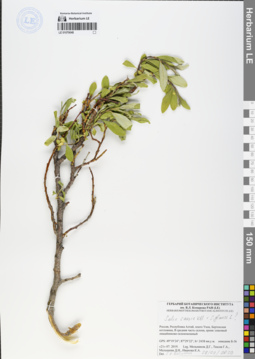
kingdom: Plantae
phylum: Tracheophyta
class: Magnoliopsida
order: Malpighiales
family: Salicaceae
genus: Salix
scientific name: Salix caesia
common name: Blue willow
